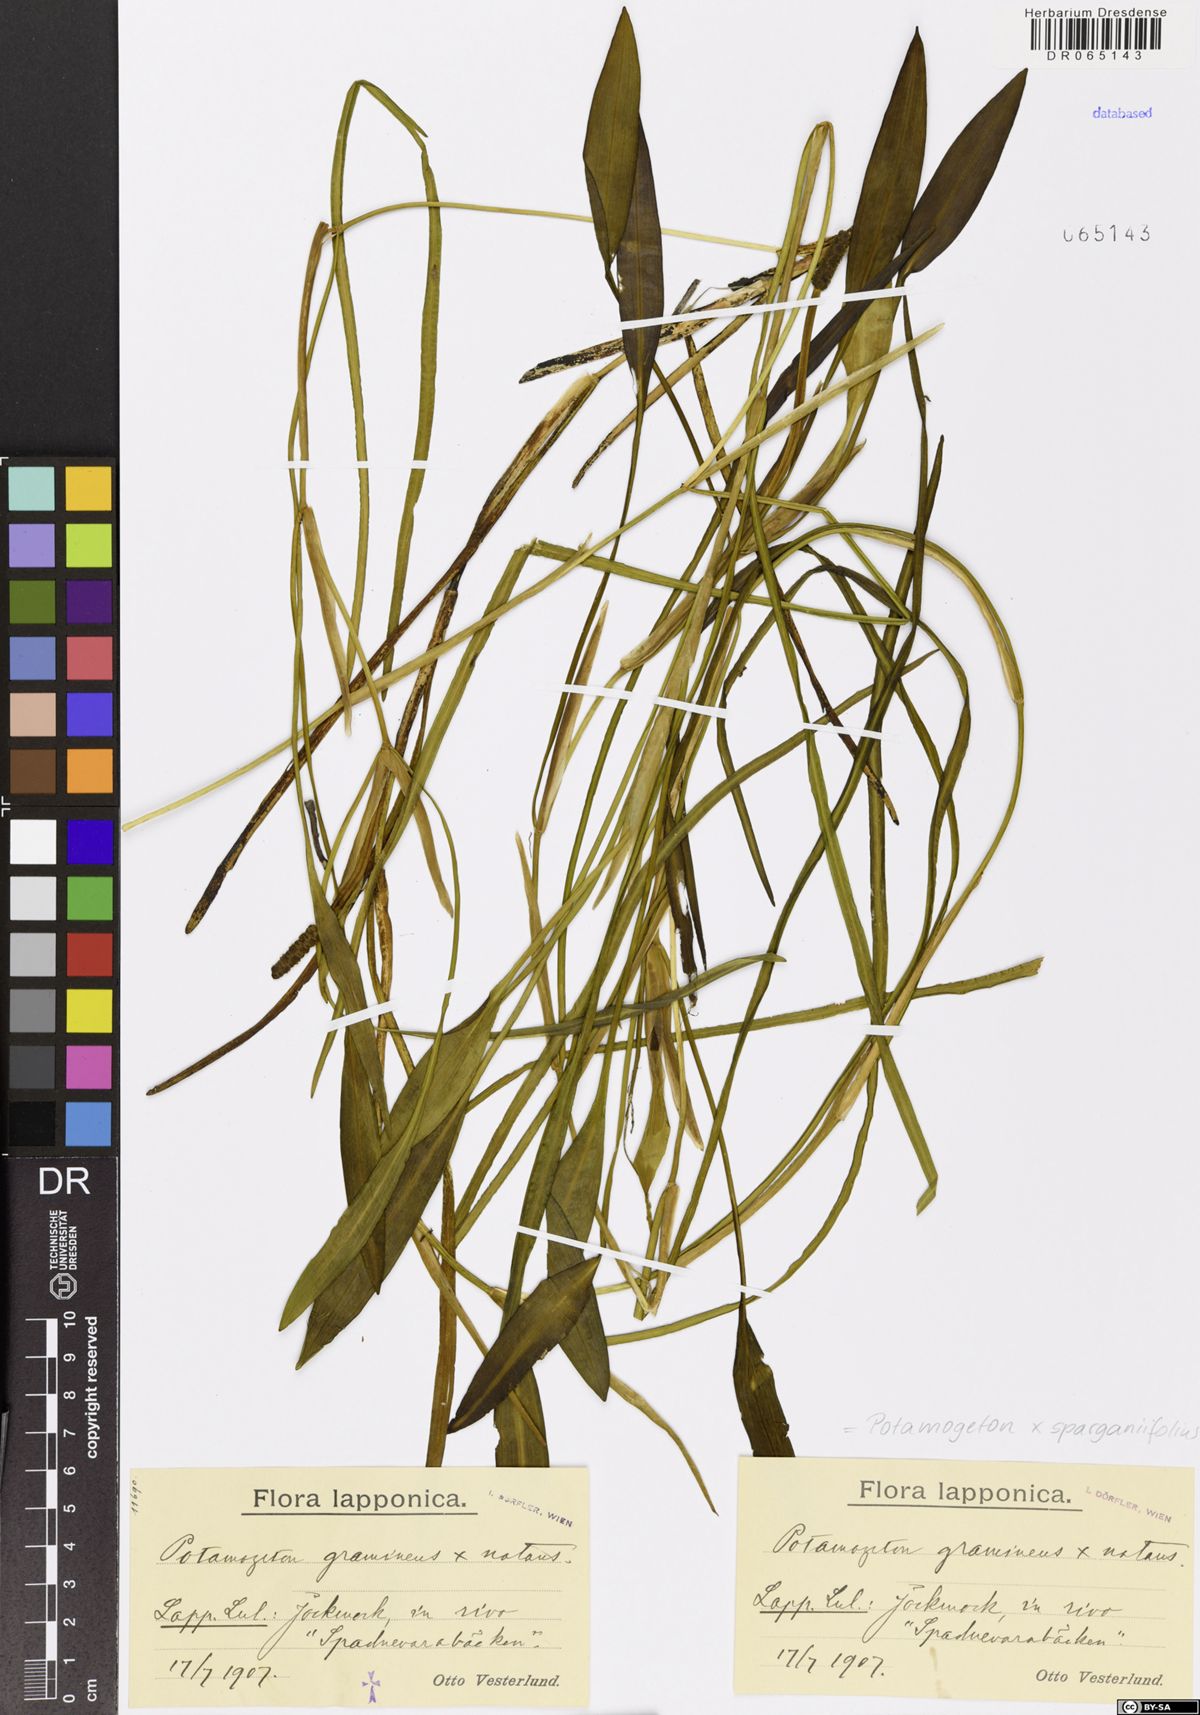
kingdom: Plantae
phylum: Tracheophyta
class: Liliopsida
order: Alismatales
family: Potamogetonaceae
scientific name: Potamogetonaceae
